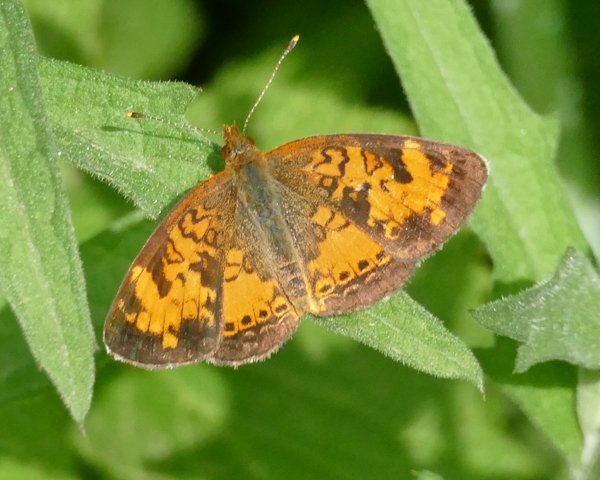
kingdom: Animalia
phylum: Arthropoda
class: Insecta
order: Lepidoptera
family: Nymphalidae
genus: Phyciodes
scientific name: Phyciodes tharos
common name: Northern Crescent
